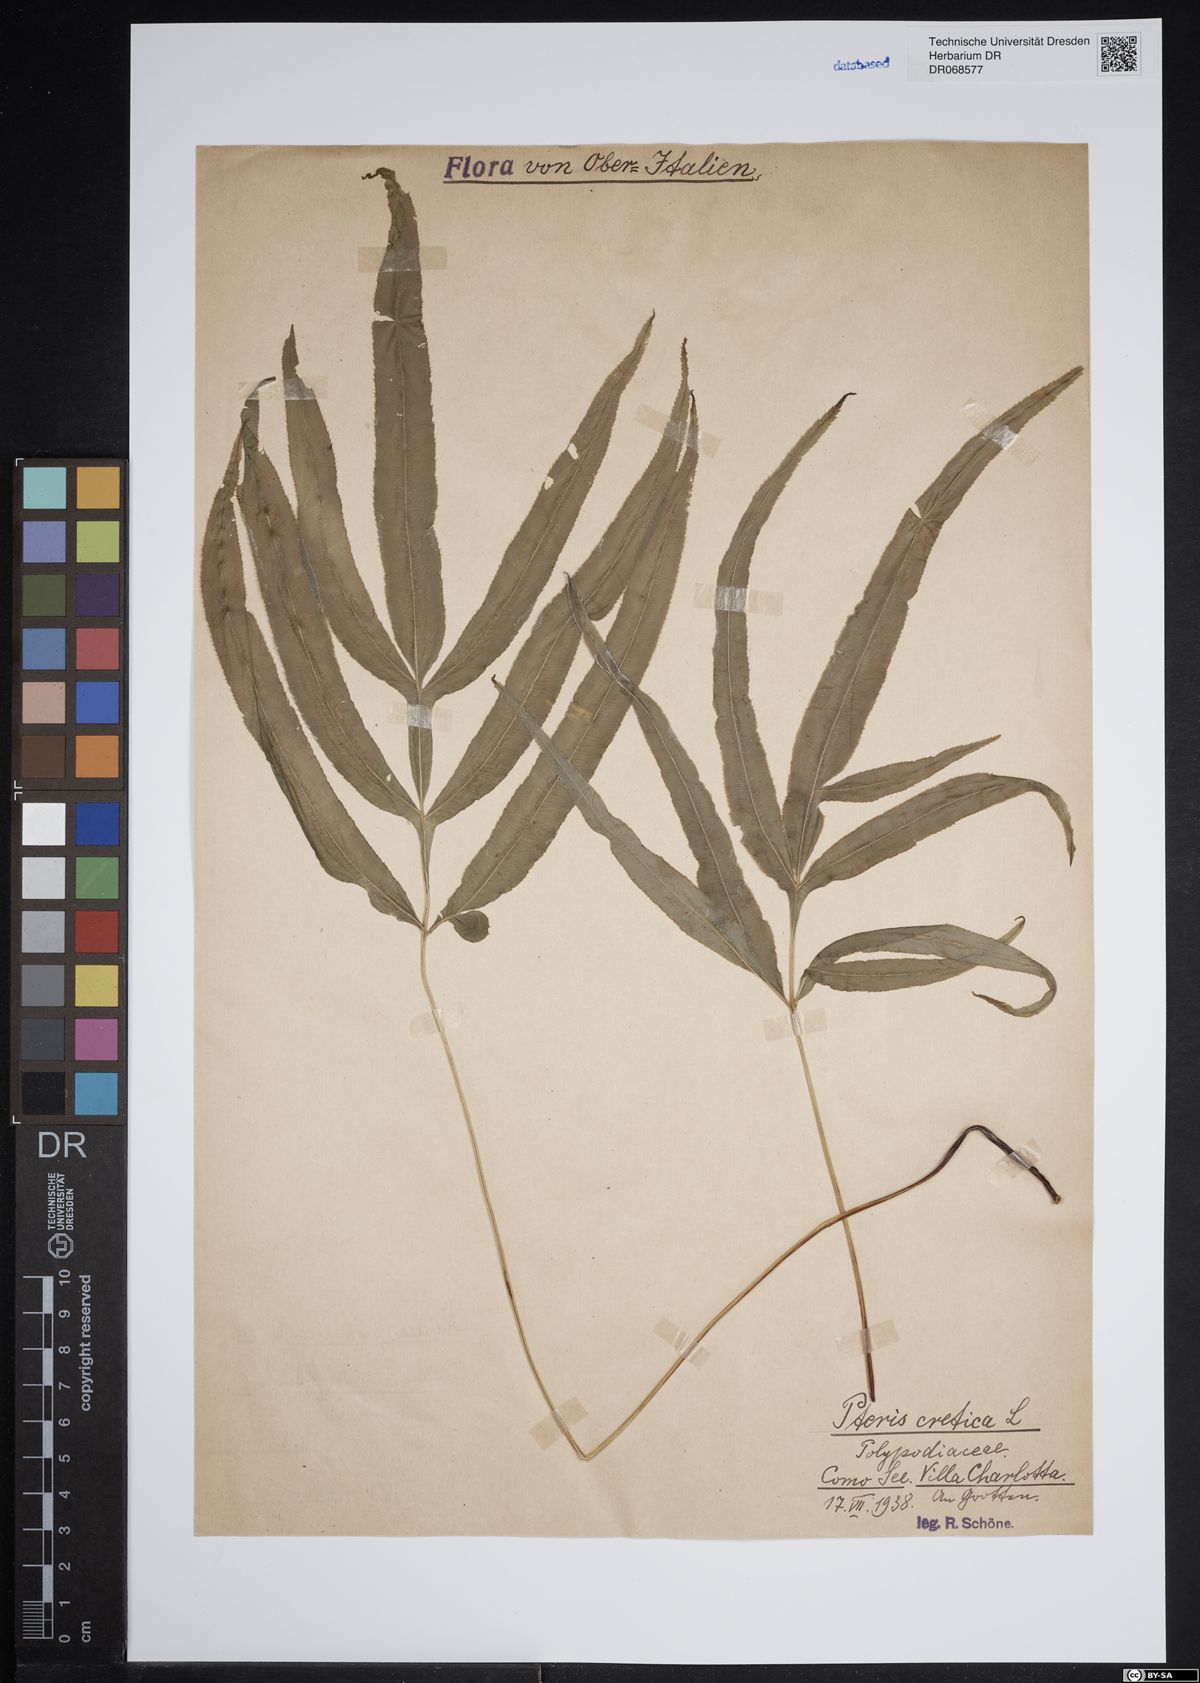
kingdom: Plantae
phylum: Tracheophyta
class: Polypodiopsida
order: Polypodiales
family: Pteridaceae
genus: Pteris
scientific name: Pteris cretica
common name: Ribbon fern
